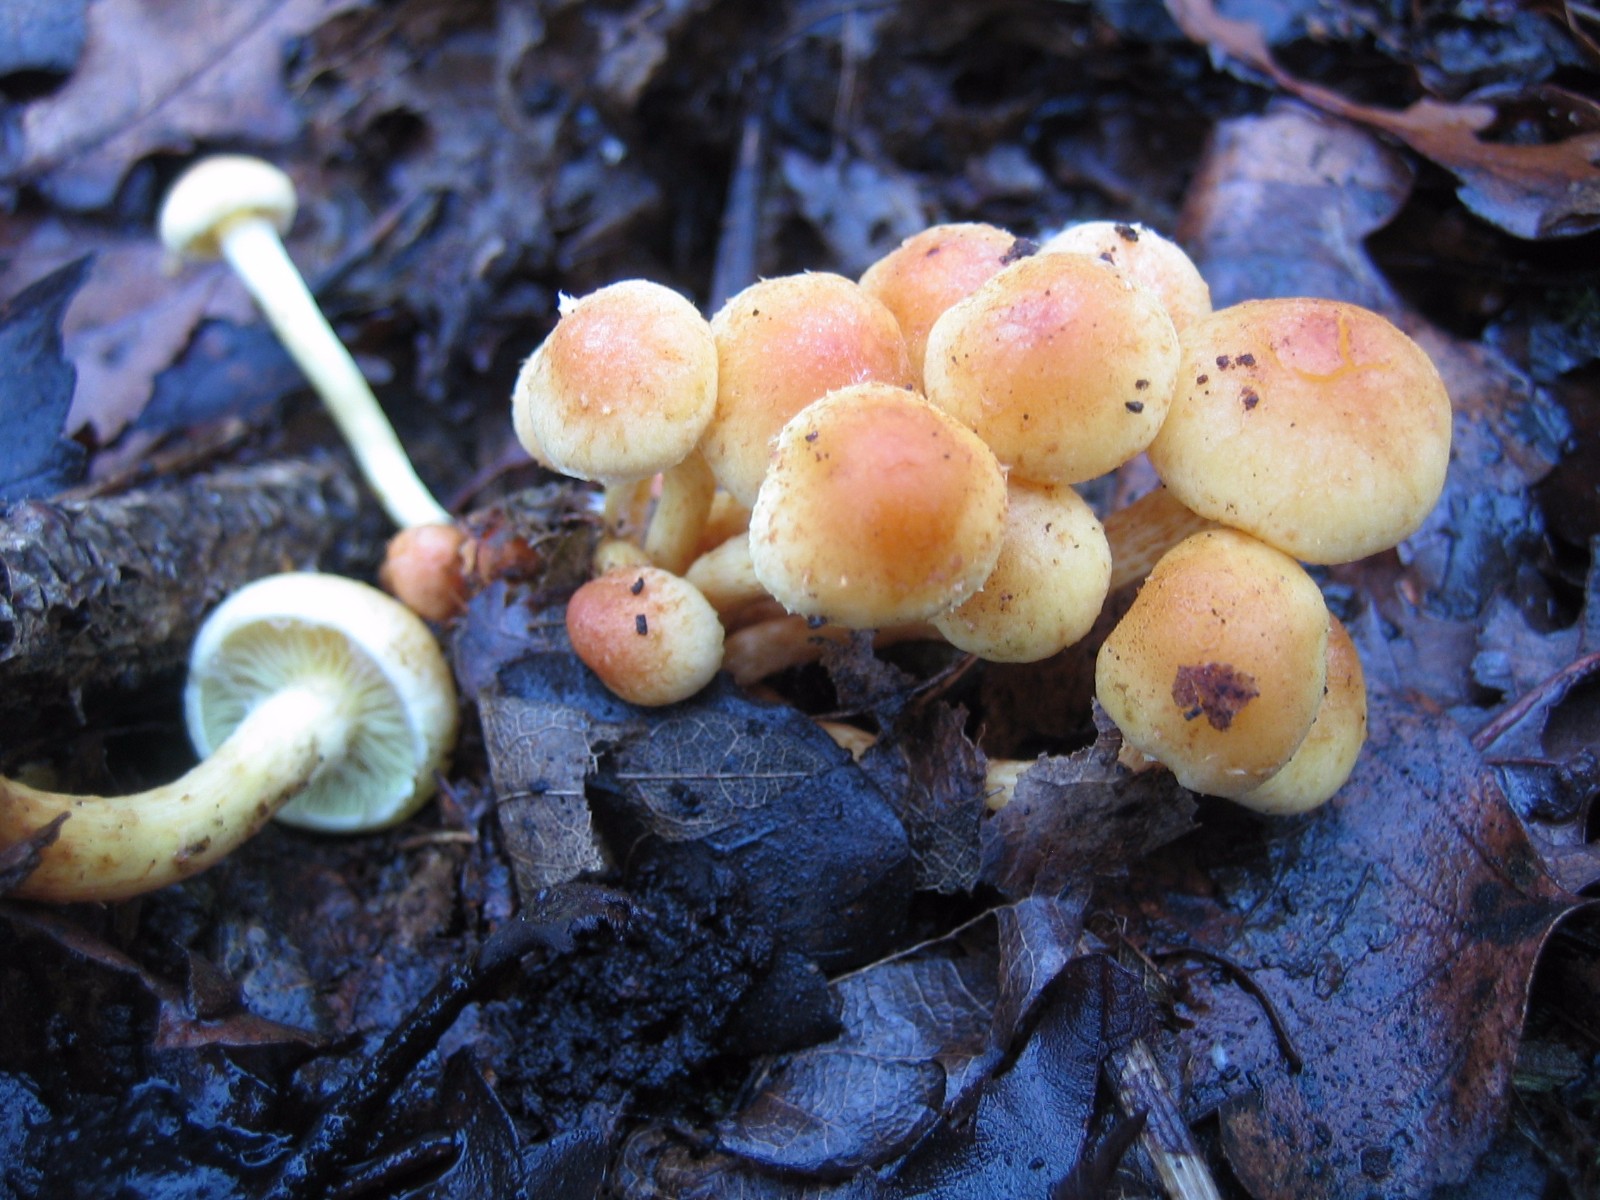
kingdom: Fungi
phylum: Basidiomycota
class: Agaricomycetes
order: Agaricales
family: Strophariaceae
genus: Hypholoma
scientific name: Hypholoma fasciculare
